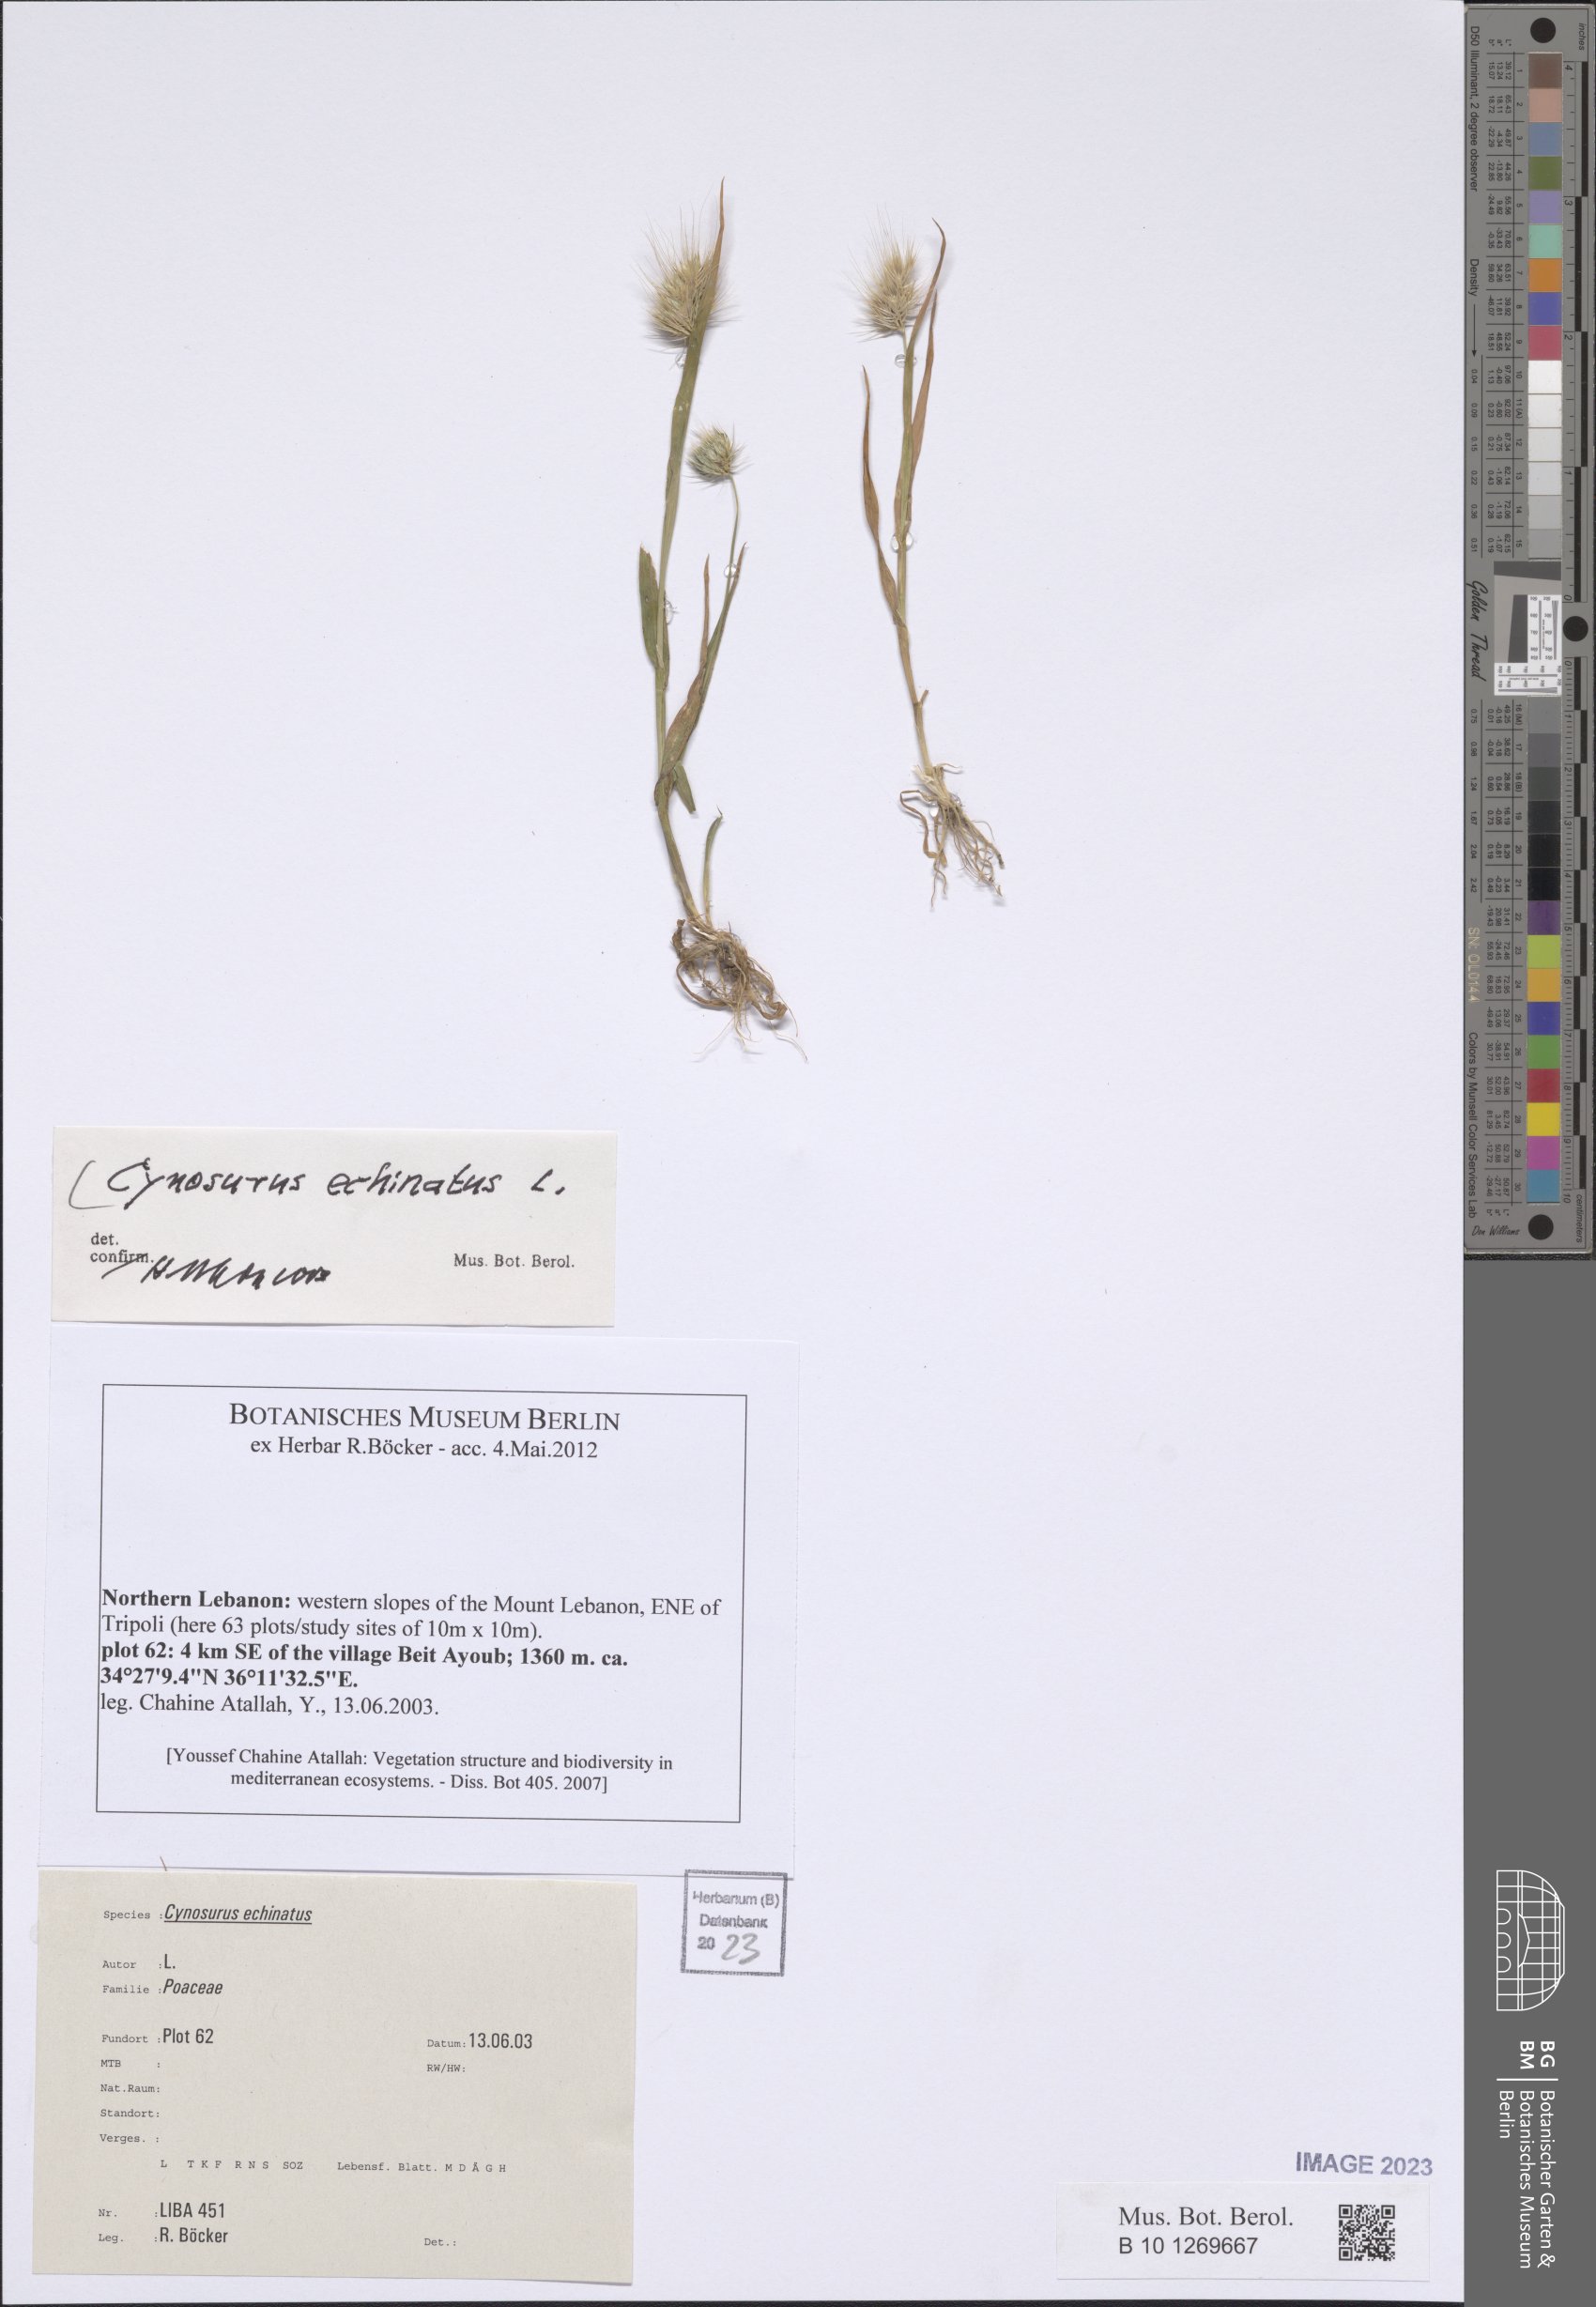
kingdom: Plantae
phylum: Tracheophyta
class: Liliopsida
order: Poales
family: Poaceae
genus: Cynosurus
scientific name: Cynosurus echinatus
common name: Rough dog's-tail
